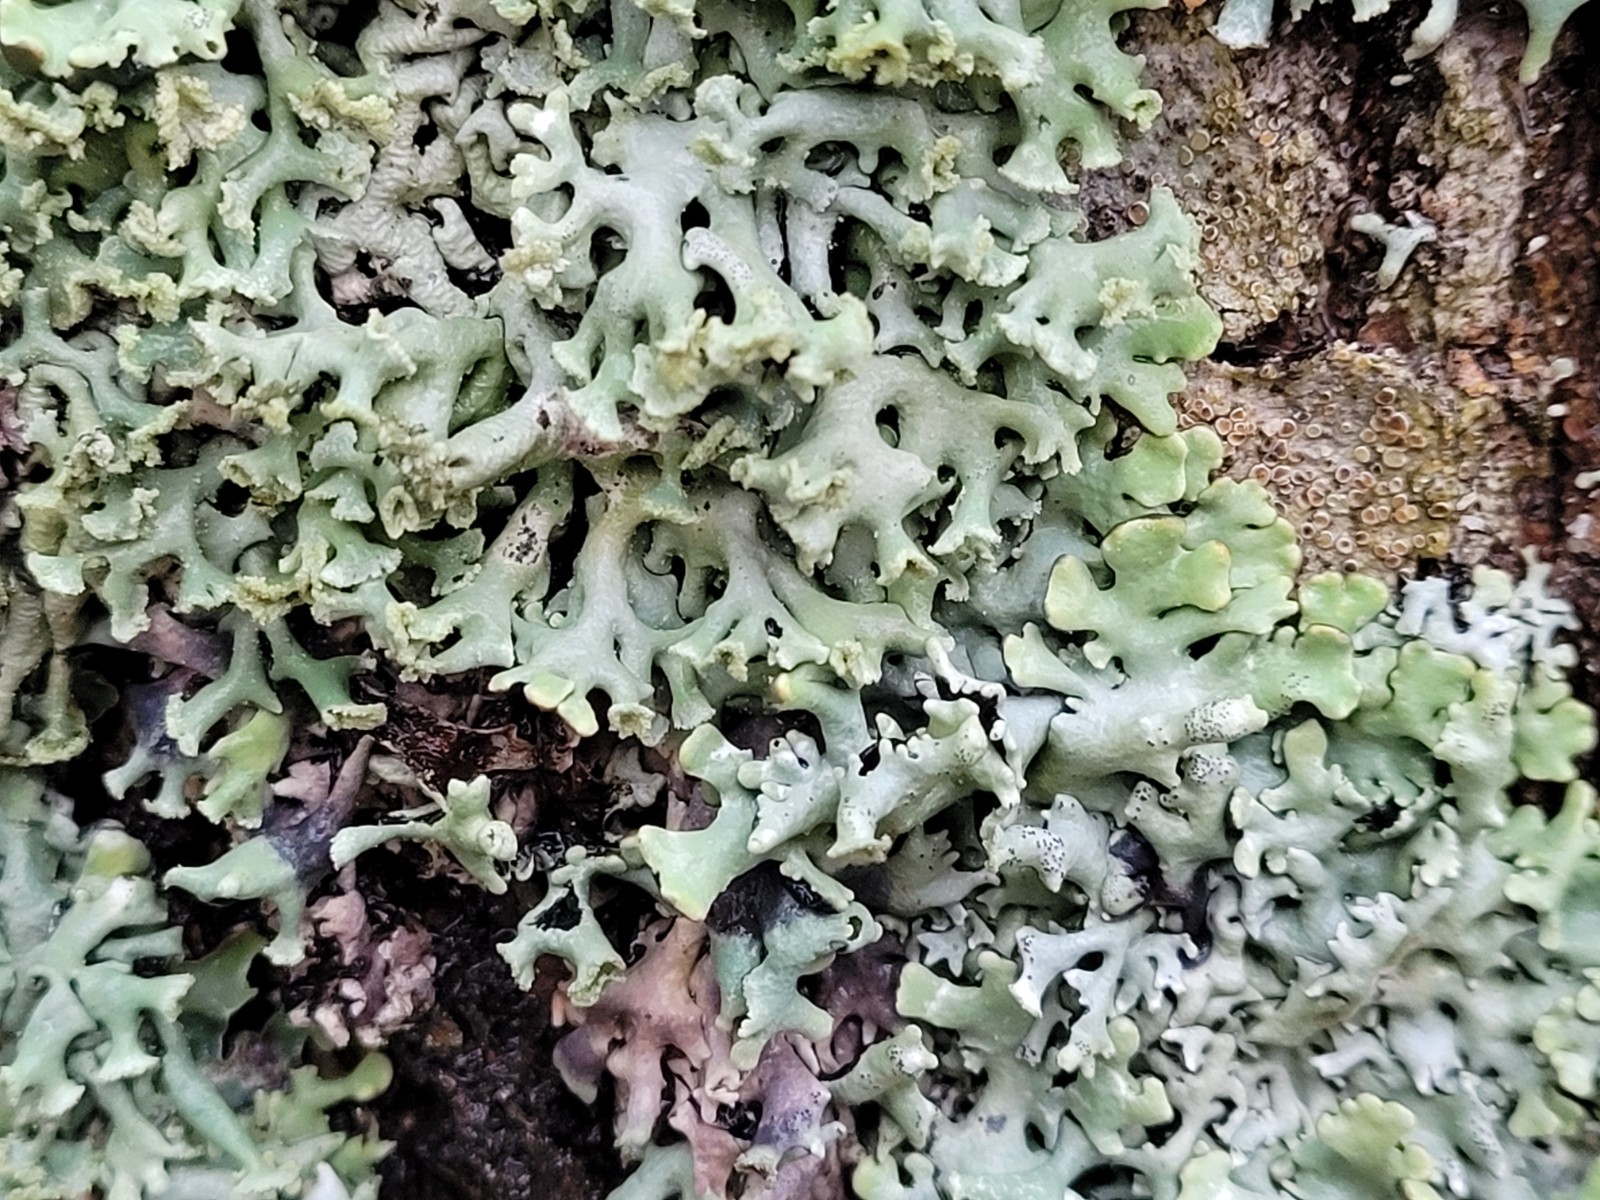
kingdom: Fungi
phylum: Ascomycota
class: Lecanoromycetes
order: Lecanorales
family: Parmeliaceae
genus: Hypogymnia
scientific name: Hypogymnia physodes
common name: almindelig kvistlav
